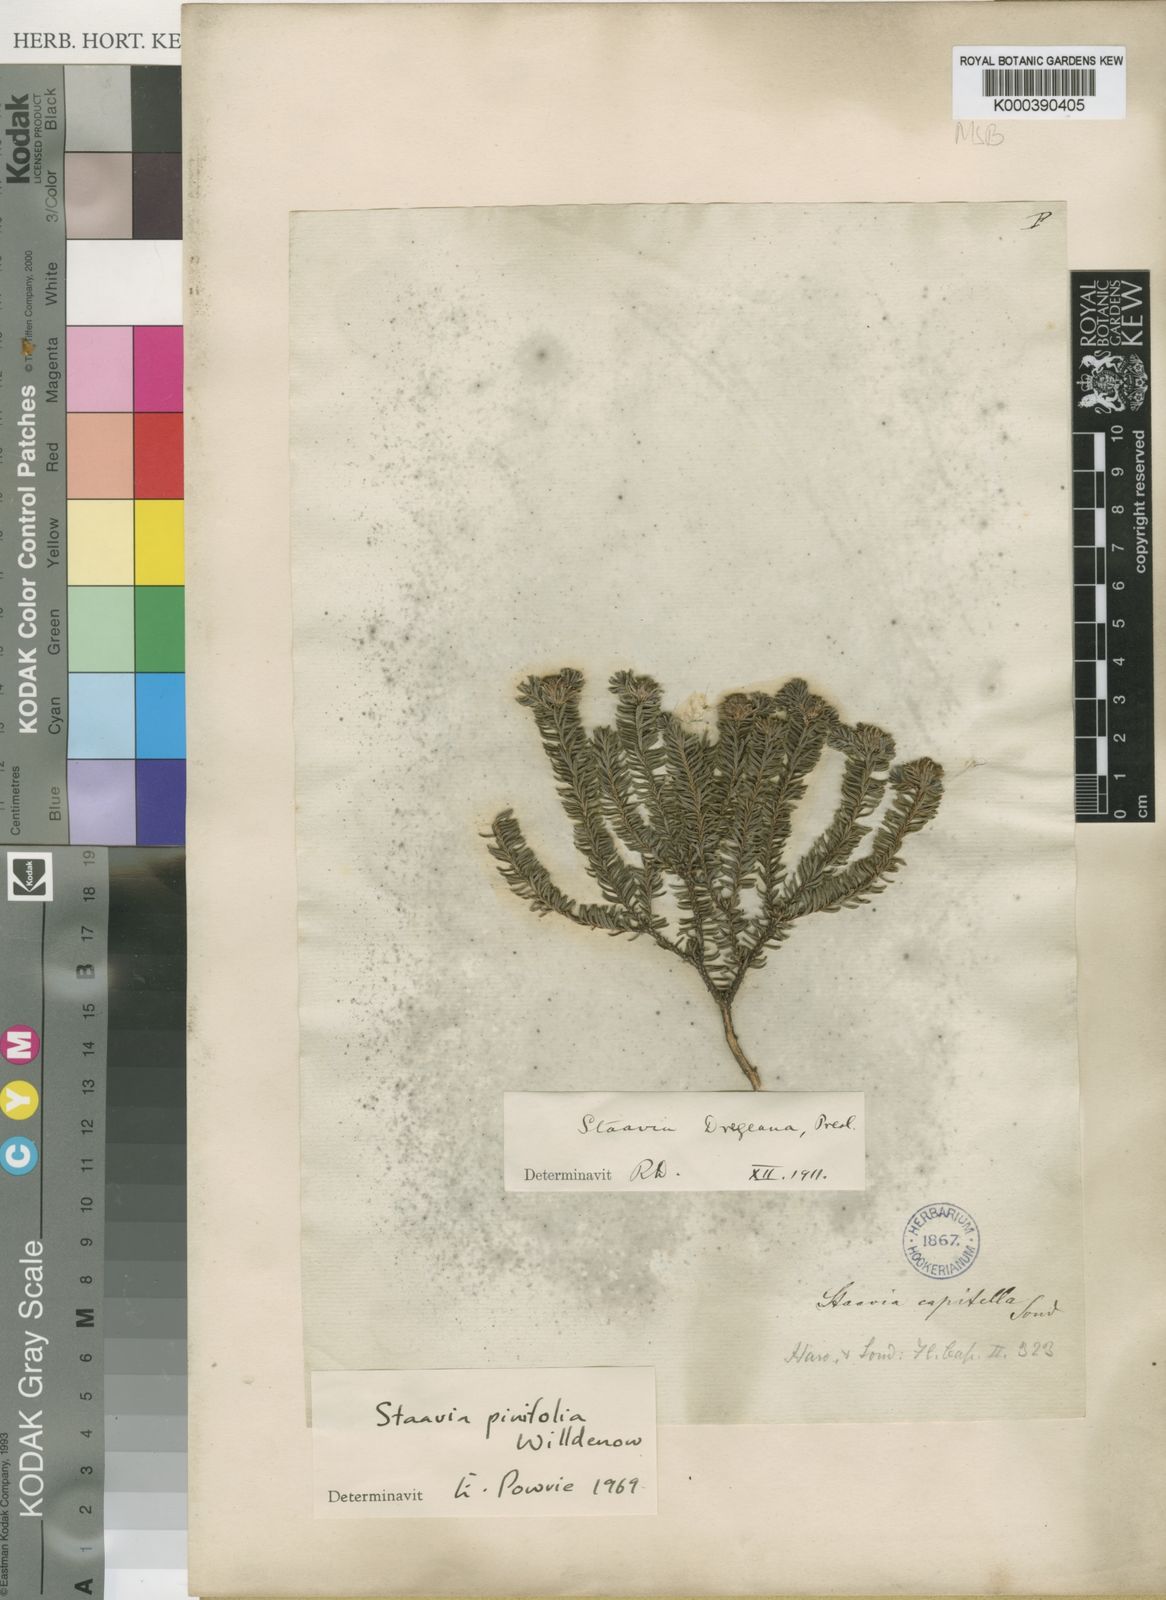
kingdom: Plantae
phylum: Tracheophyta
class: Magnoliopsida
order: Bruniales
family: Bruniaceae
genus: Staavia
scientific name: Staavia radiata
